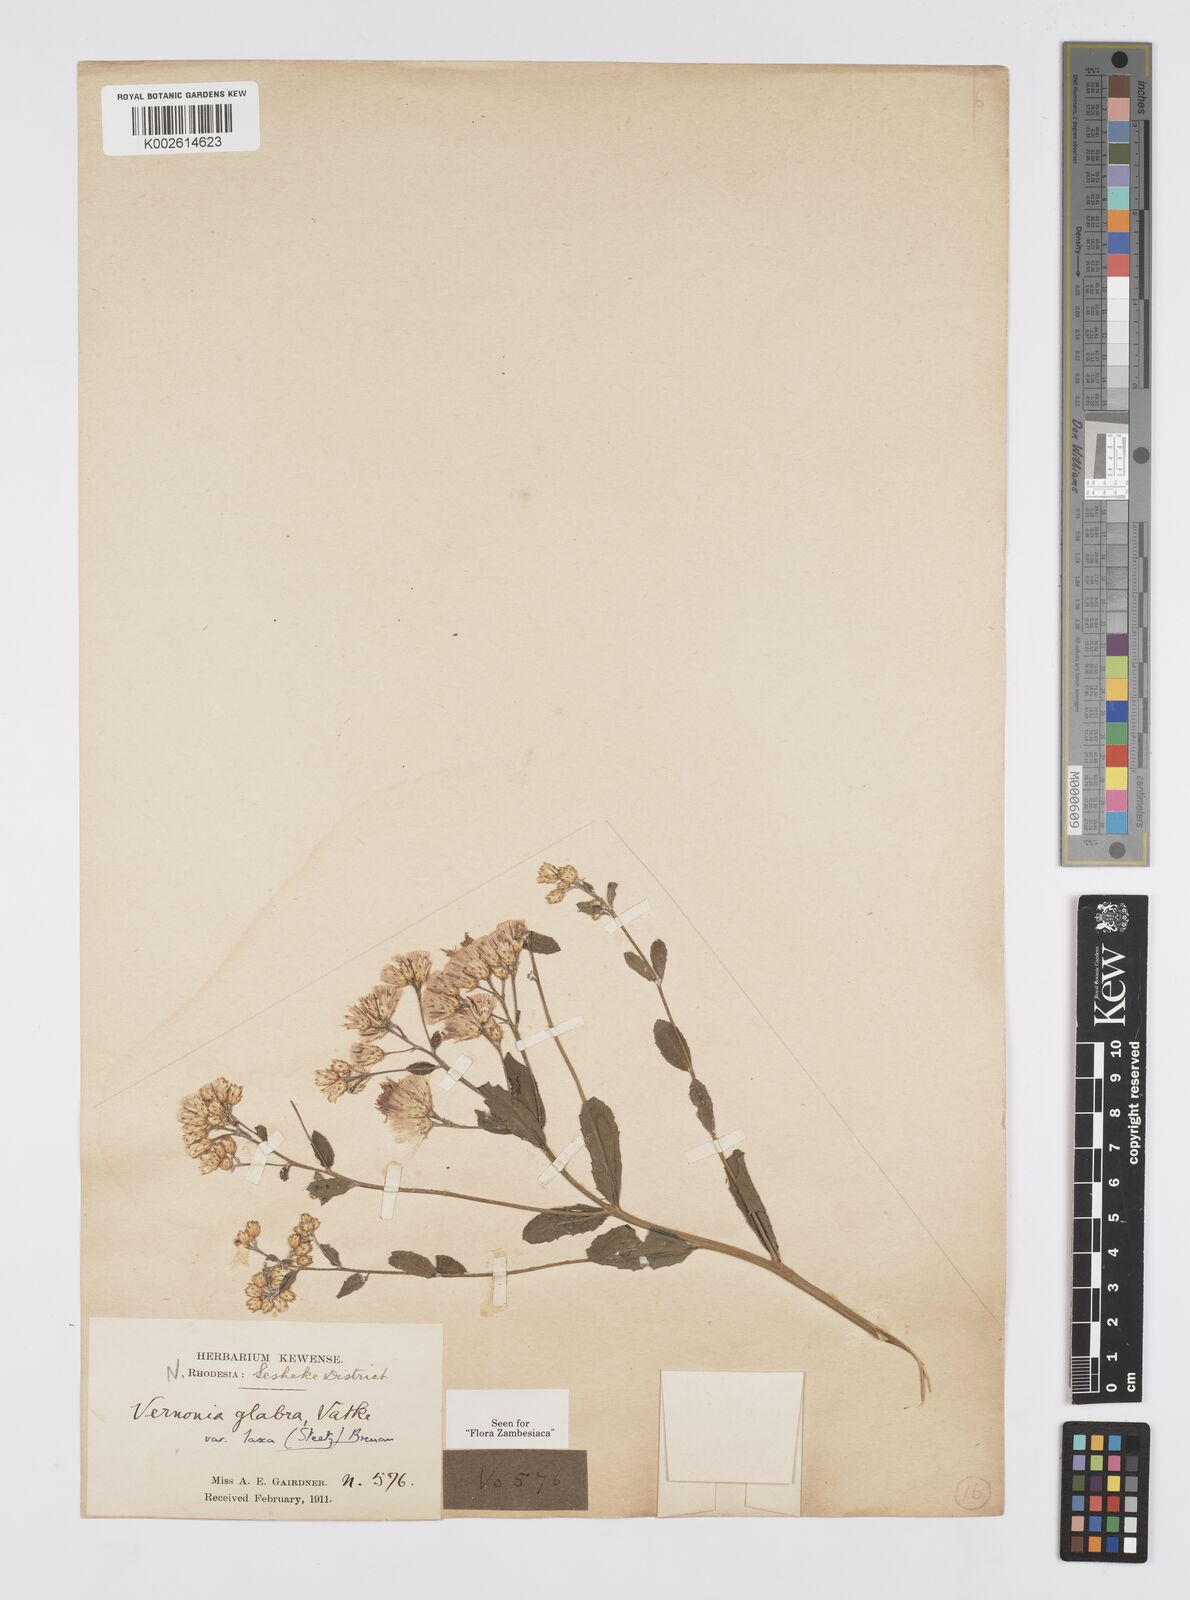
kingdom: Plantae
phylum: Tracheophyta
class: Magnoliopsida
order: Asterales
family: Asteraceae
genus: Linzia
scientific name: Linzia glabra
